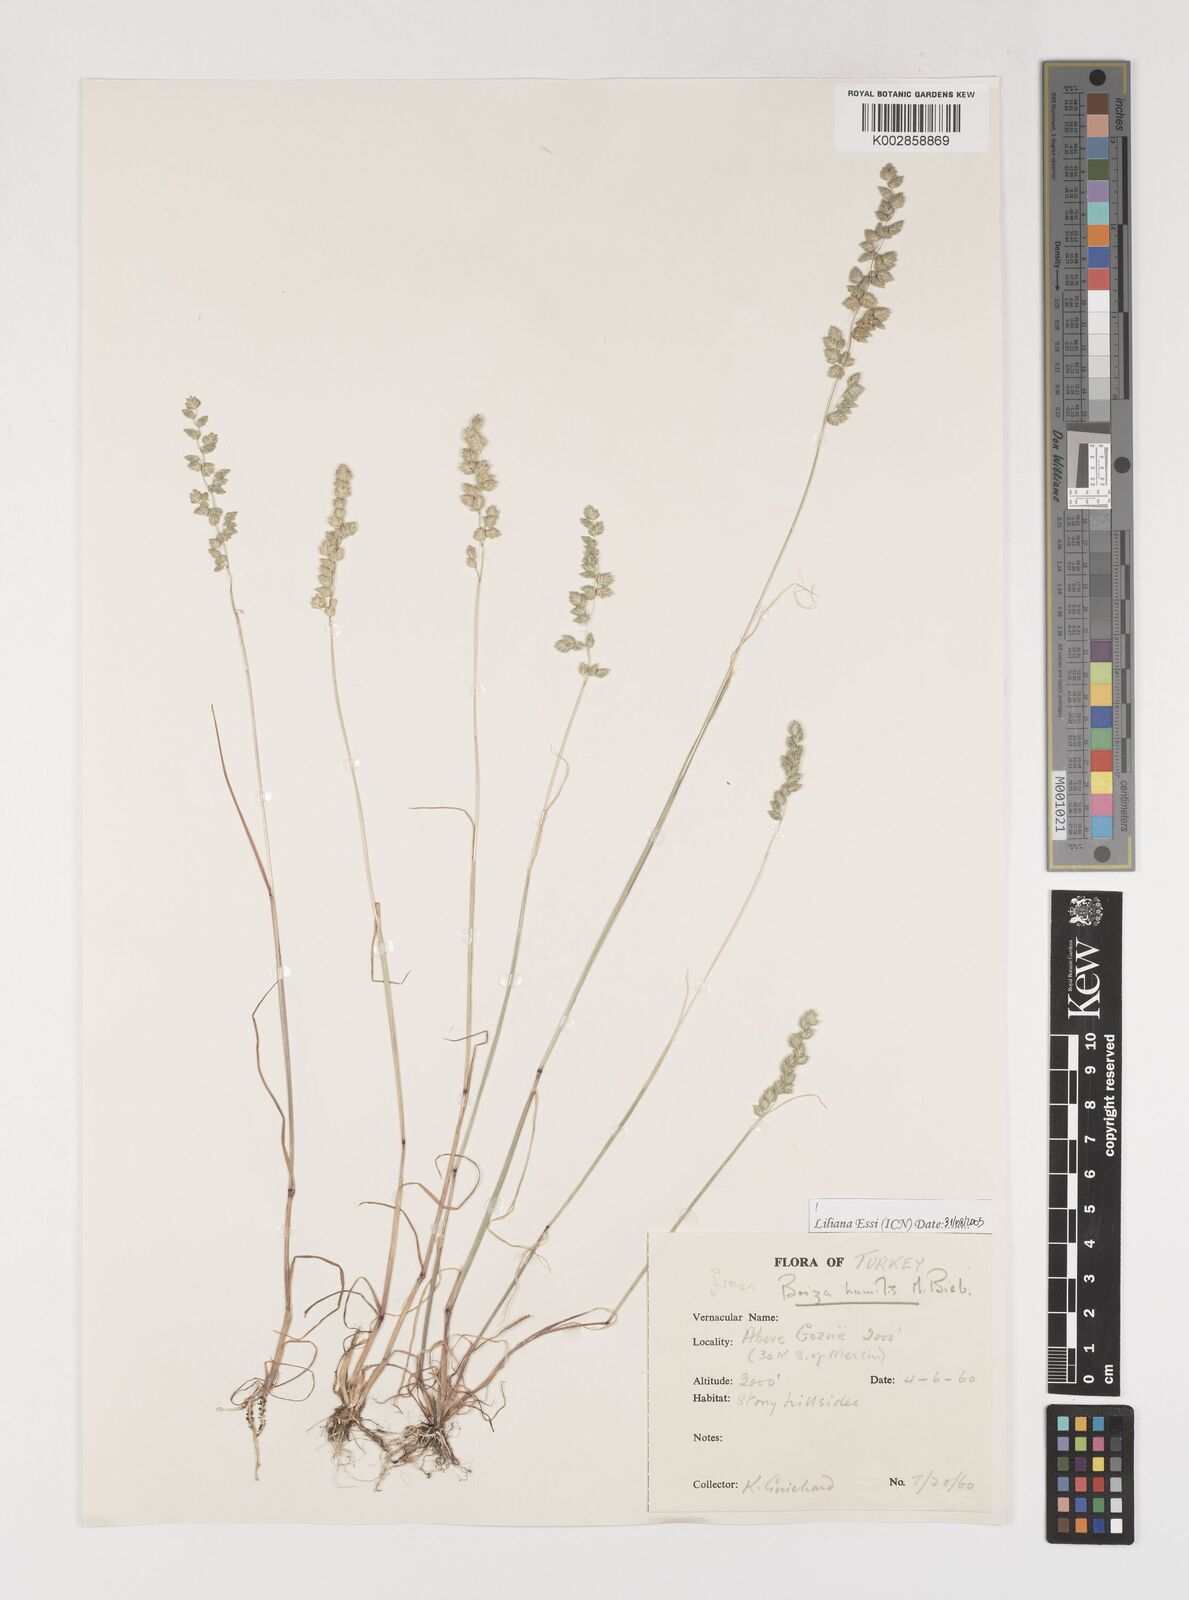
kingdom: Plantae
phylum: Tracheophyta
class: Liliopsida
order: Poales
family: Poaceae
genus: Briza
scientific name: Briza humilis
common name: Spiked quaking grass
